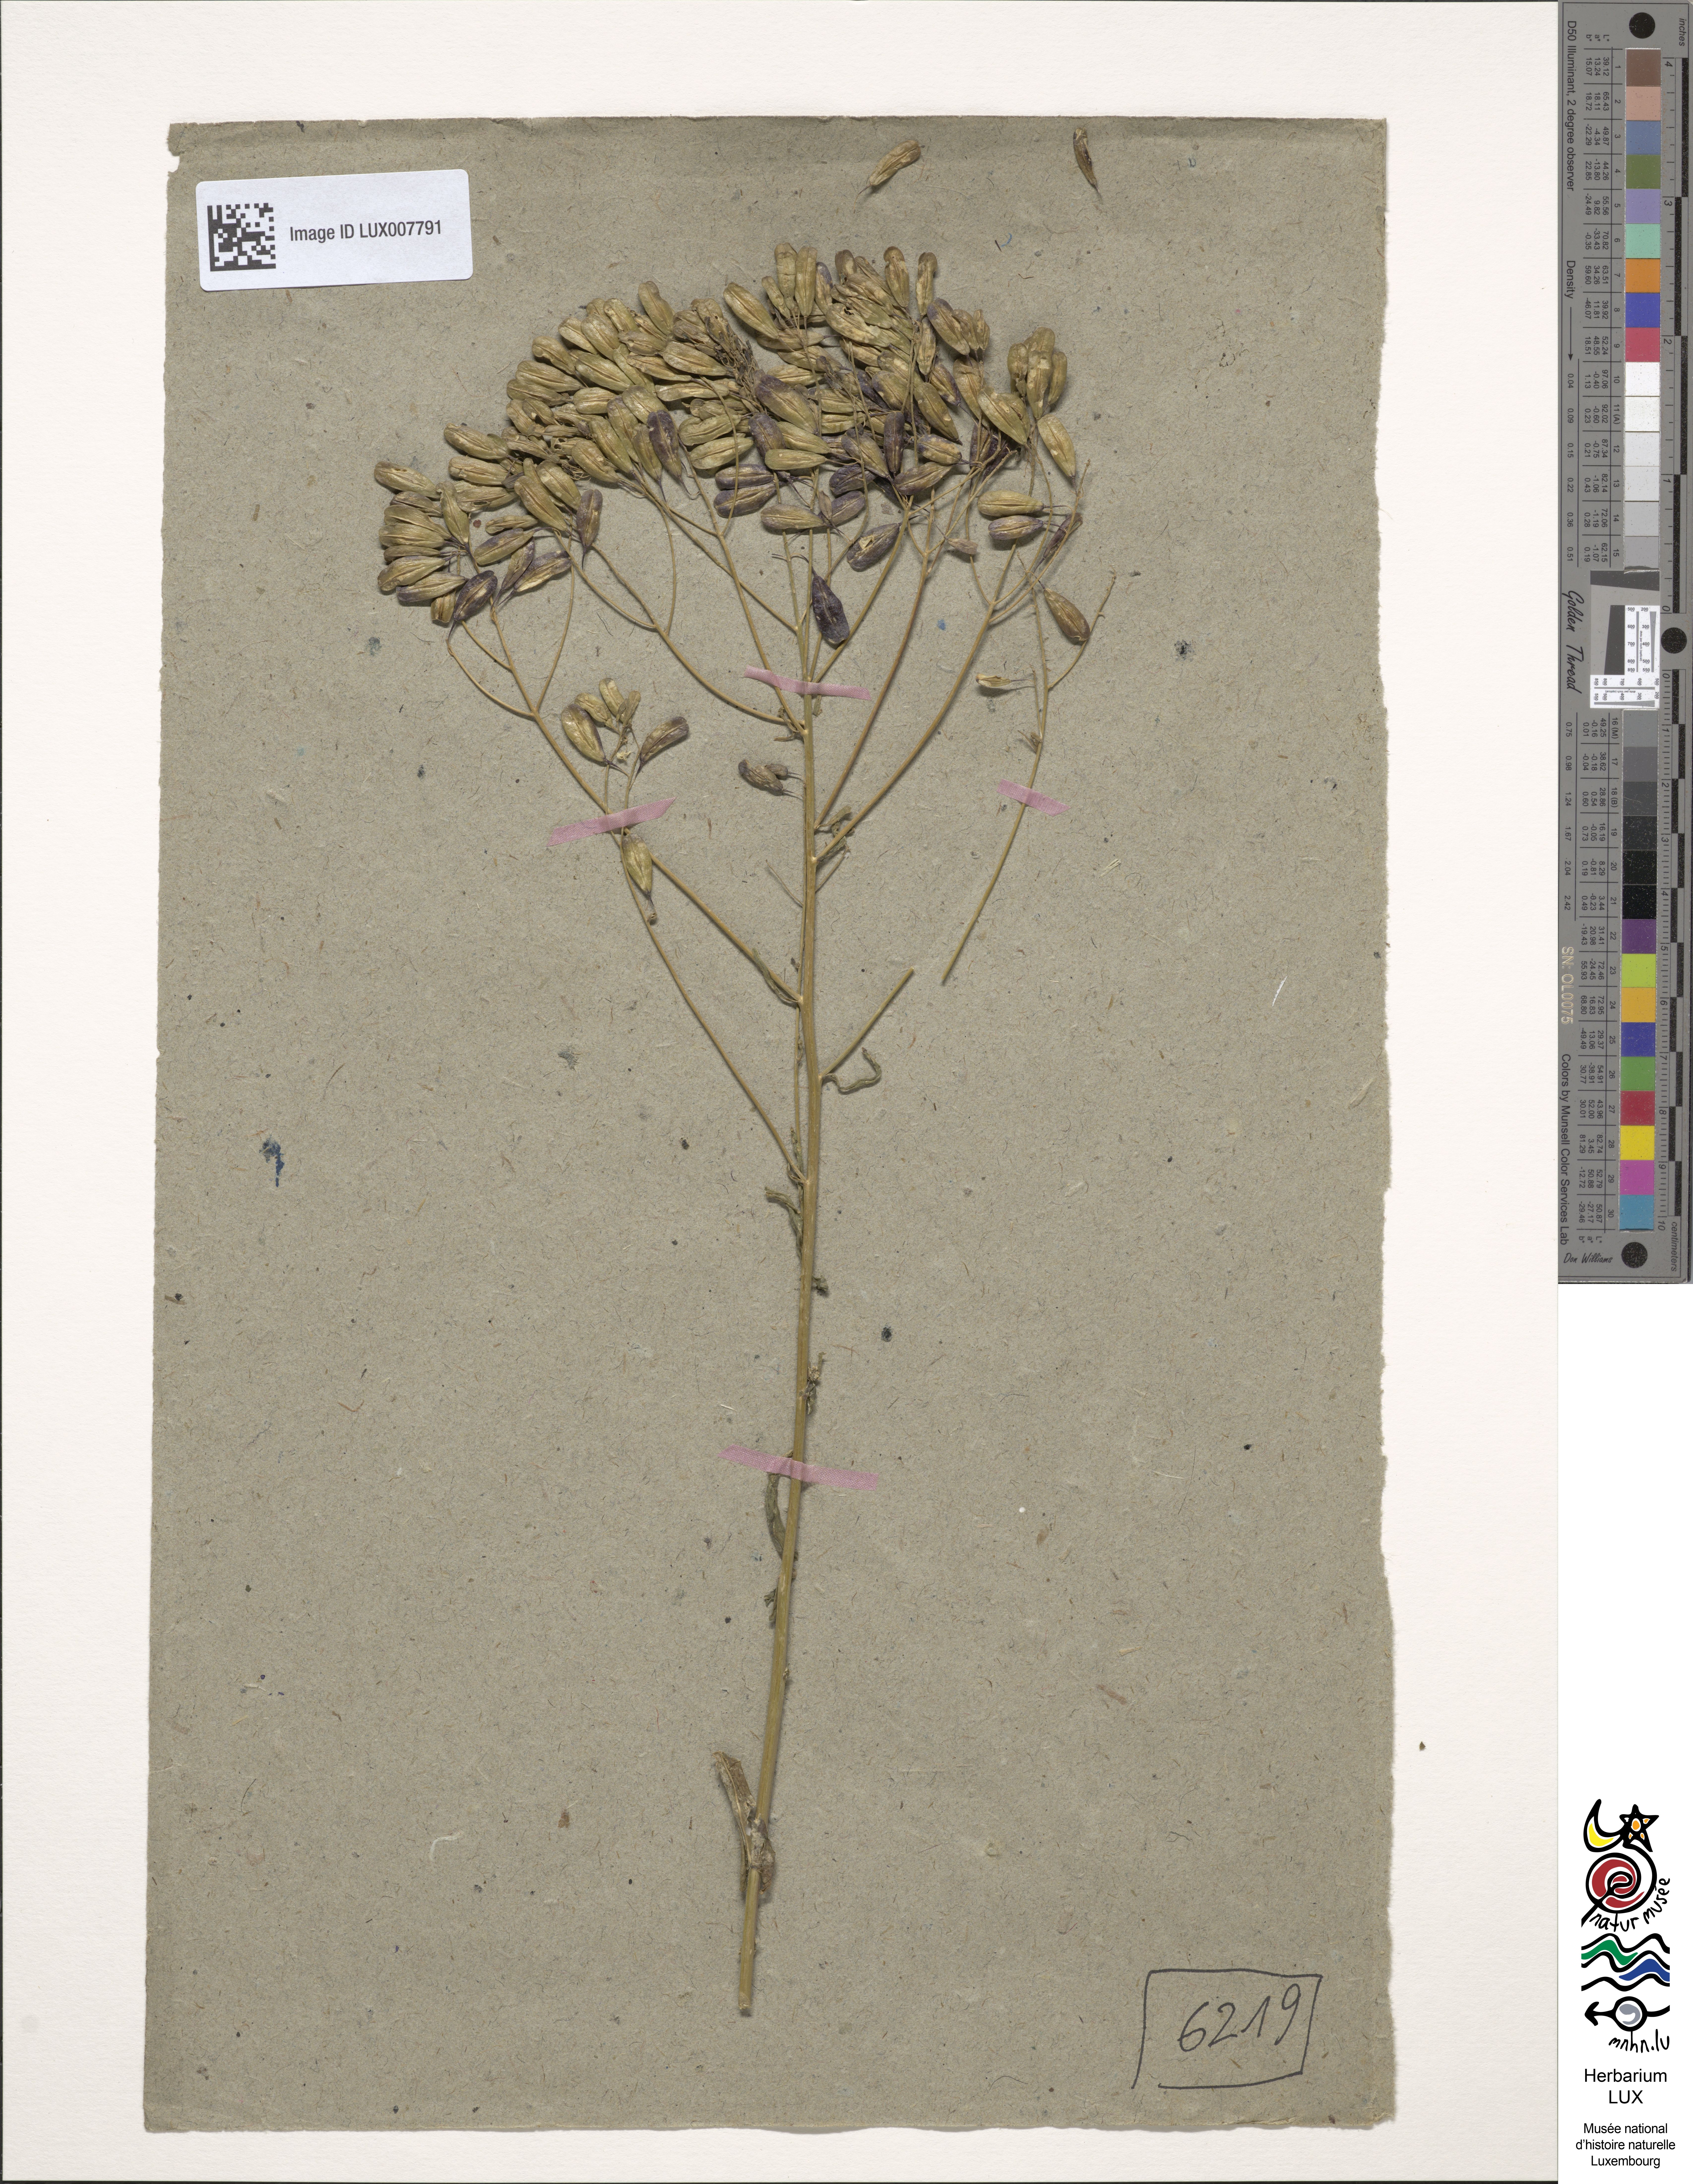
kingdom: Plantae
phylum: Tracheophyta
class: Magnoliopsida
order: Brassicales
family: Brassicaceae
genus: Isatis
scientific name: Isatis tinctoria
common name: Woad
